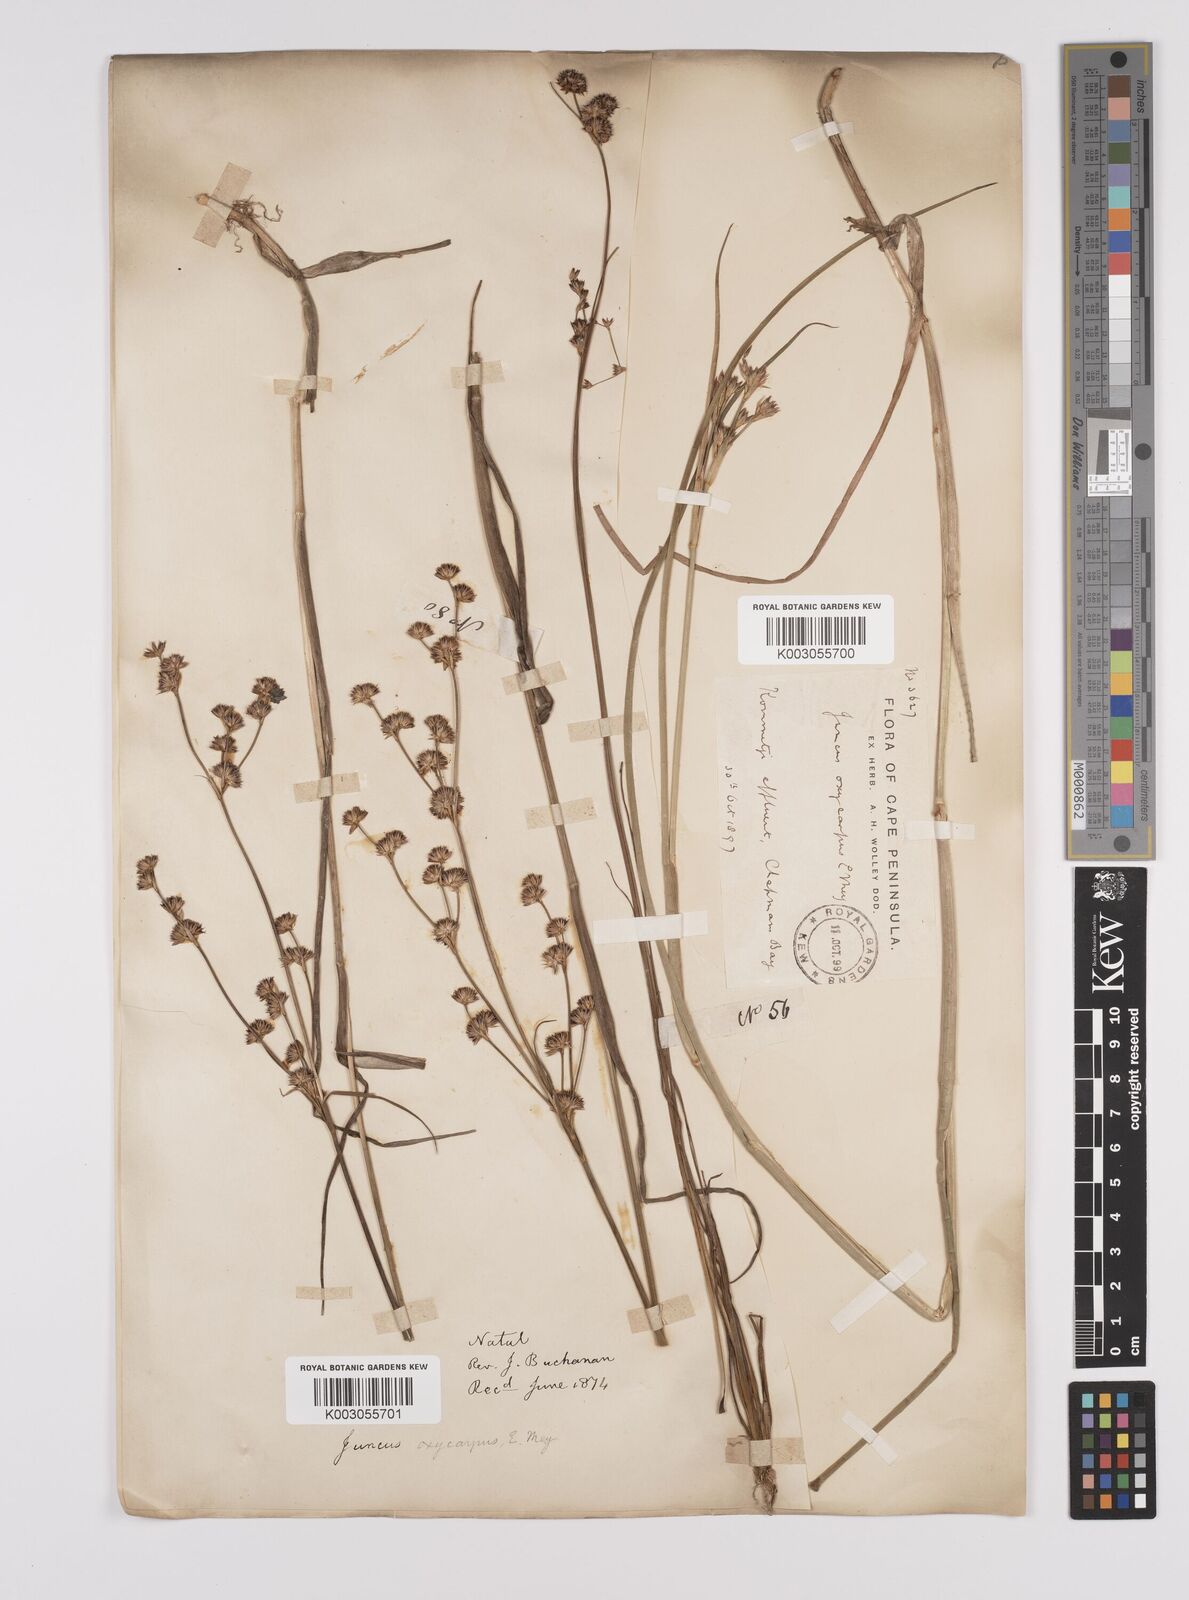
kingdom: Plantae
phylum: Tracheophyta
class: Liliopsida
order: Poales
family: Juncaceae
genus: Juncus
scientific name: Juncus oxycarpus
